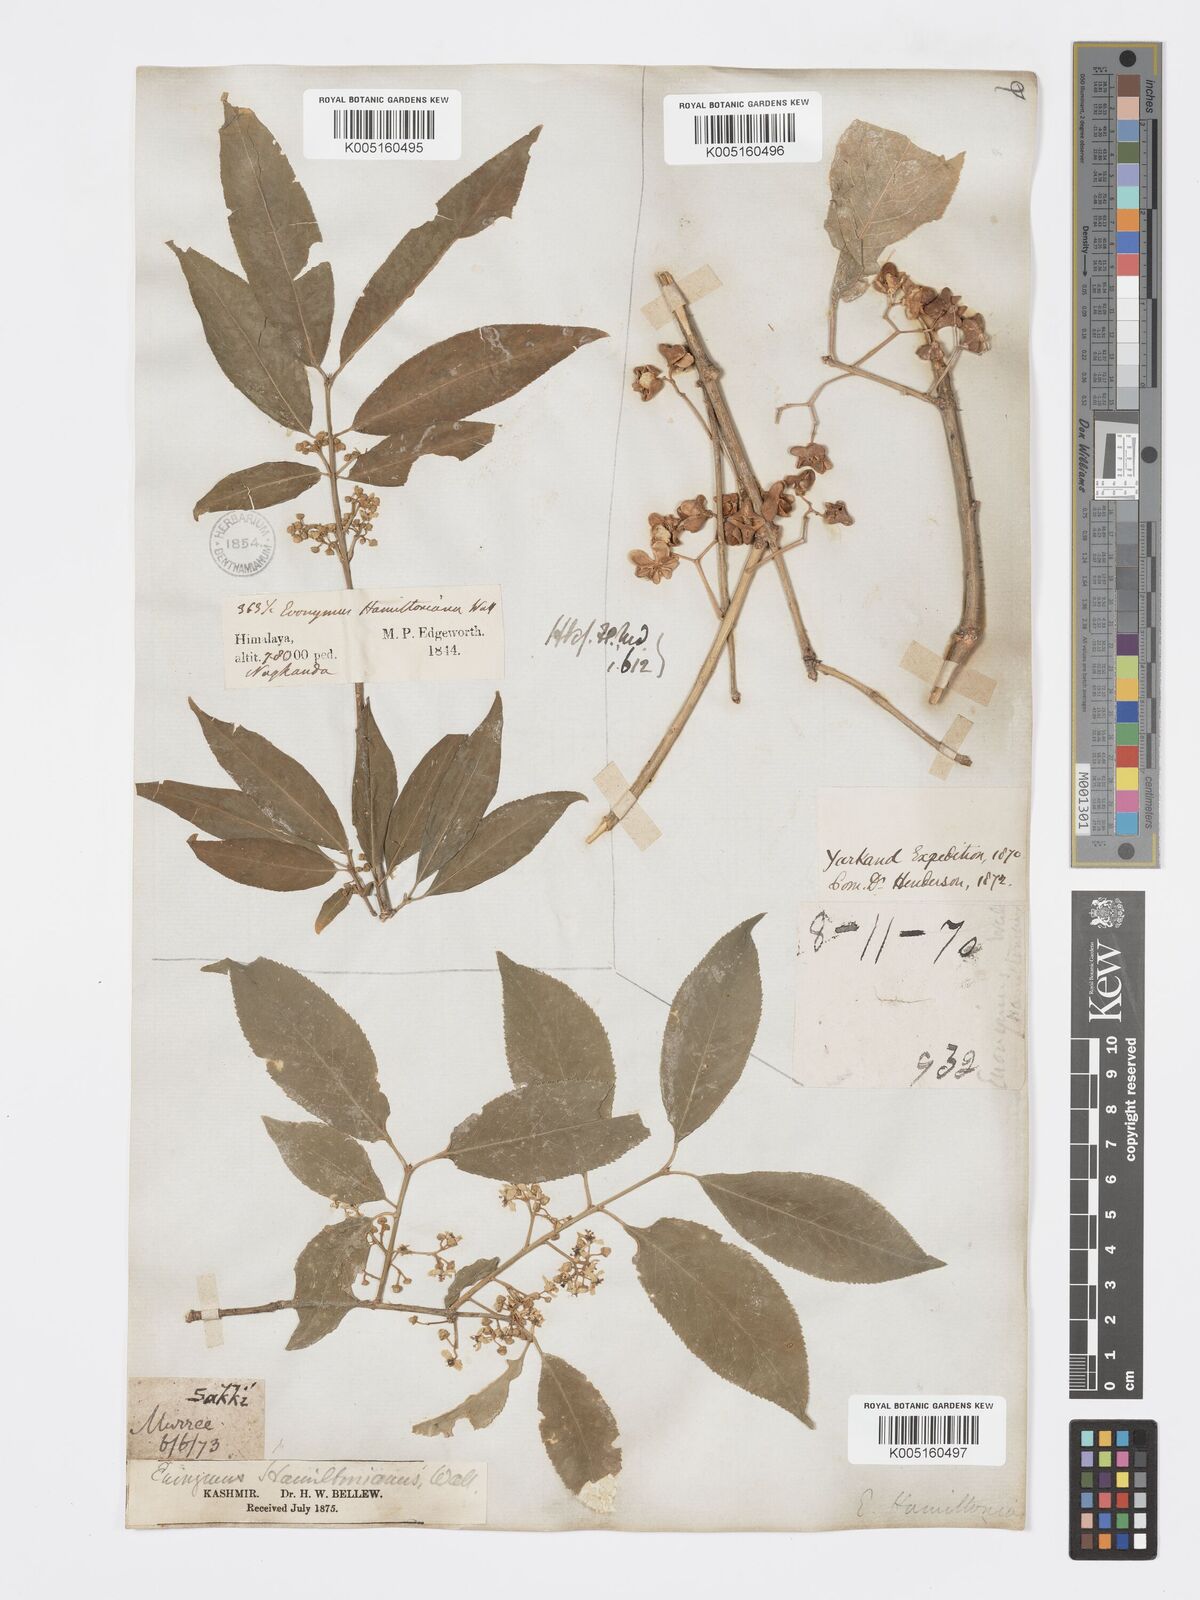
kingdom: Plantae
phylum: Tracheophyta
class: Magnoliopsida
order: Celastrales
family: Celastraceae
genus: Euonymus
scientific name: Euonymus
